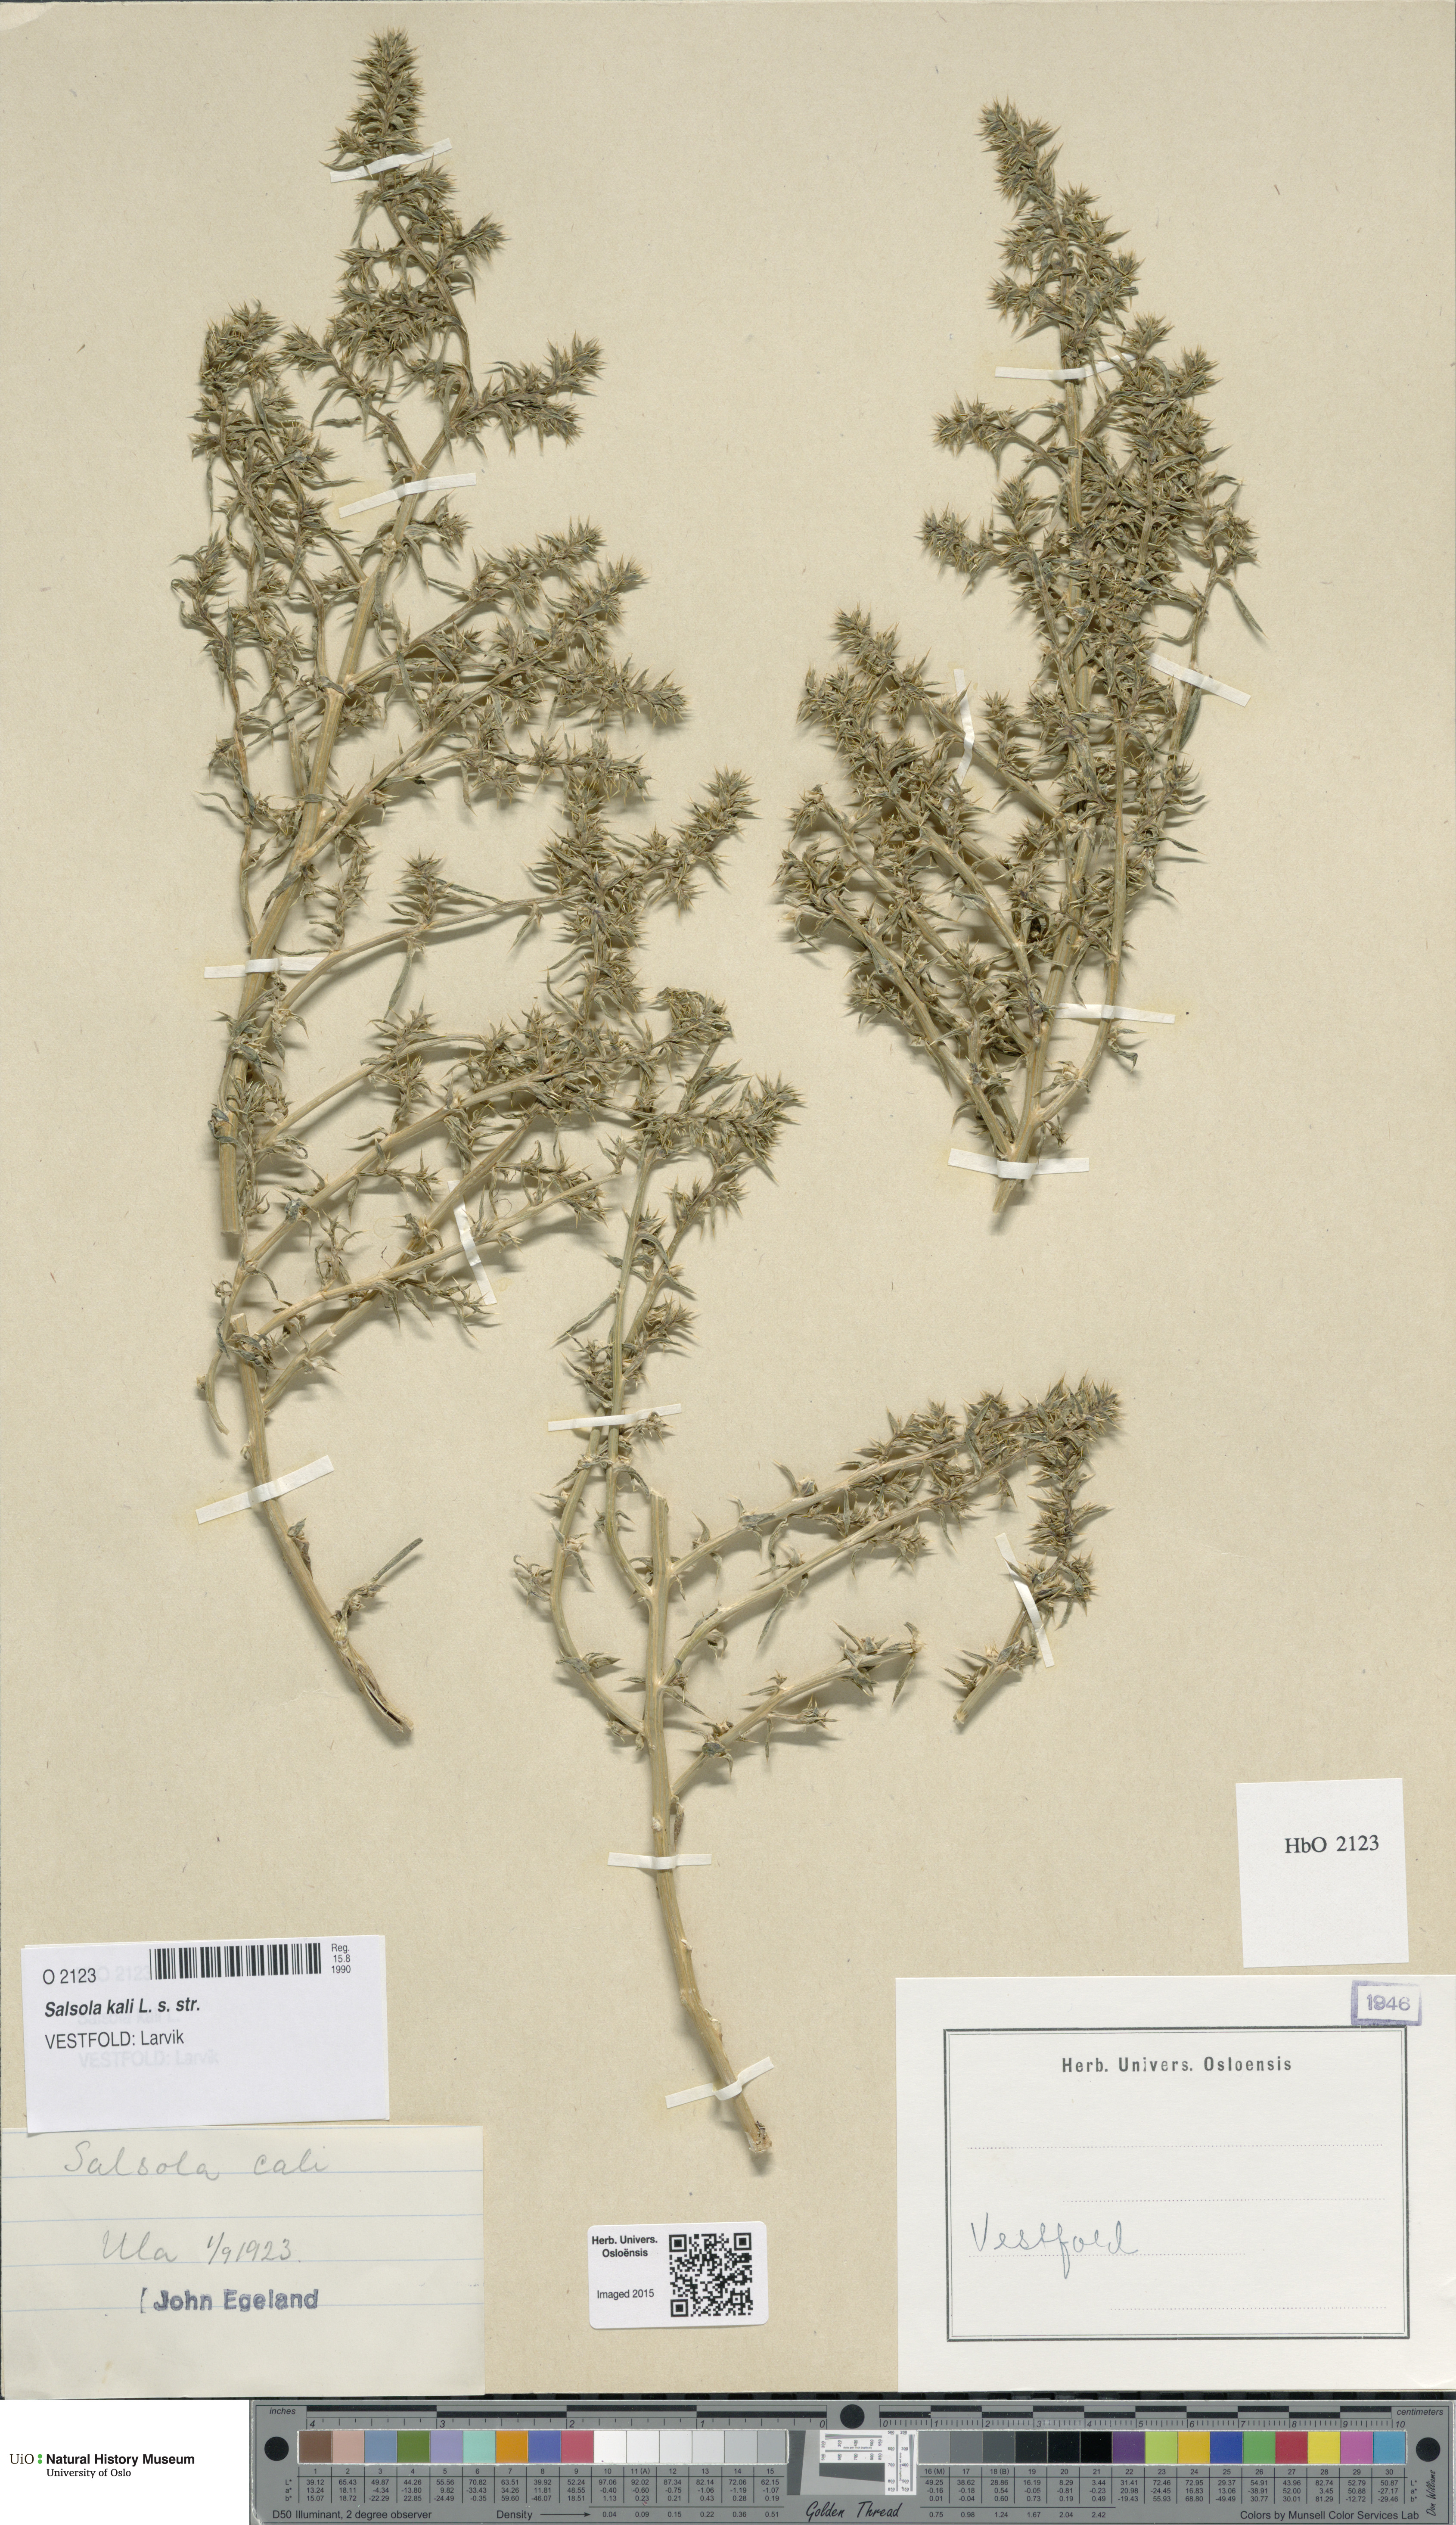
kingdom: Plantae
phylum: Tracheophyta
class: Magnoliopsida
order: Caryophyllales
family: Amaranthaceae
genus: Salsola
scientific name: Salsola kali
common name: Saltwort
